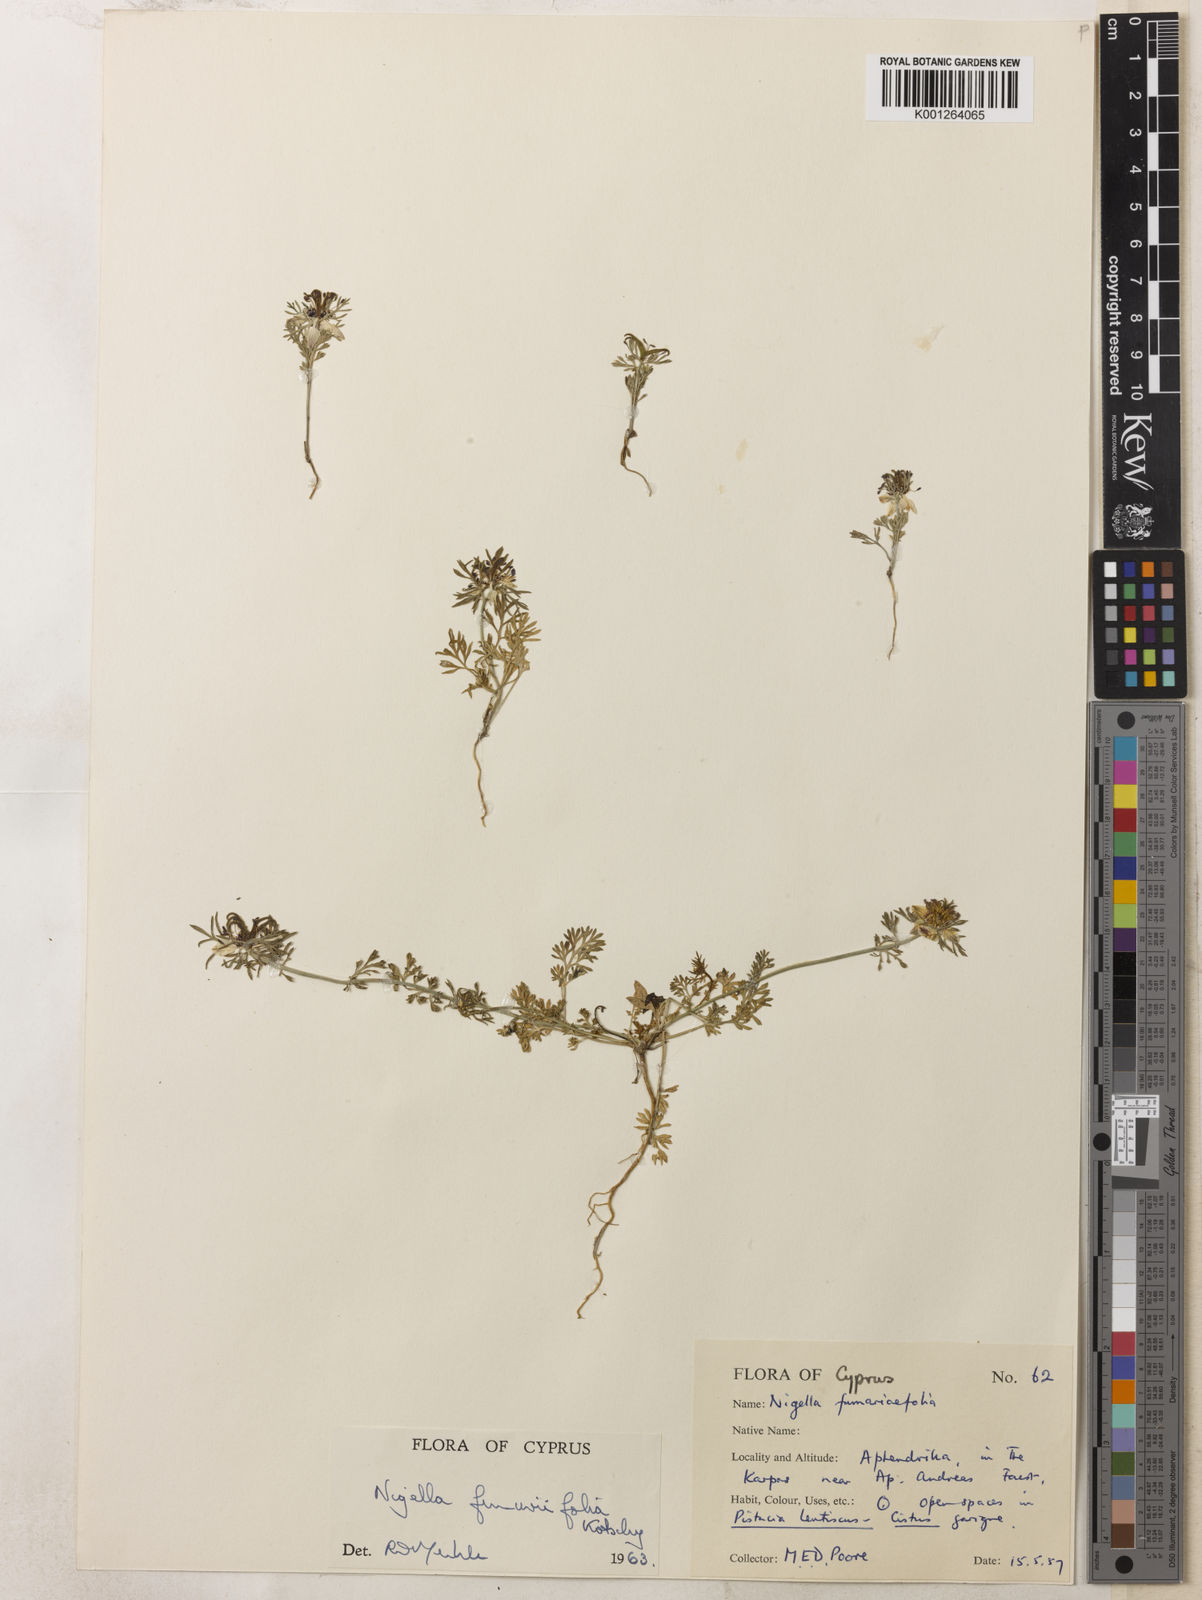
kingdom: Plantae
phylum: Tracheophyta
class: Magnoliopsida
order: Ranunculales
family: Ranunculaceae
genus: Nigella
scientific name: Nigella
